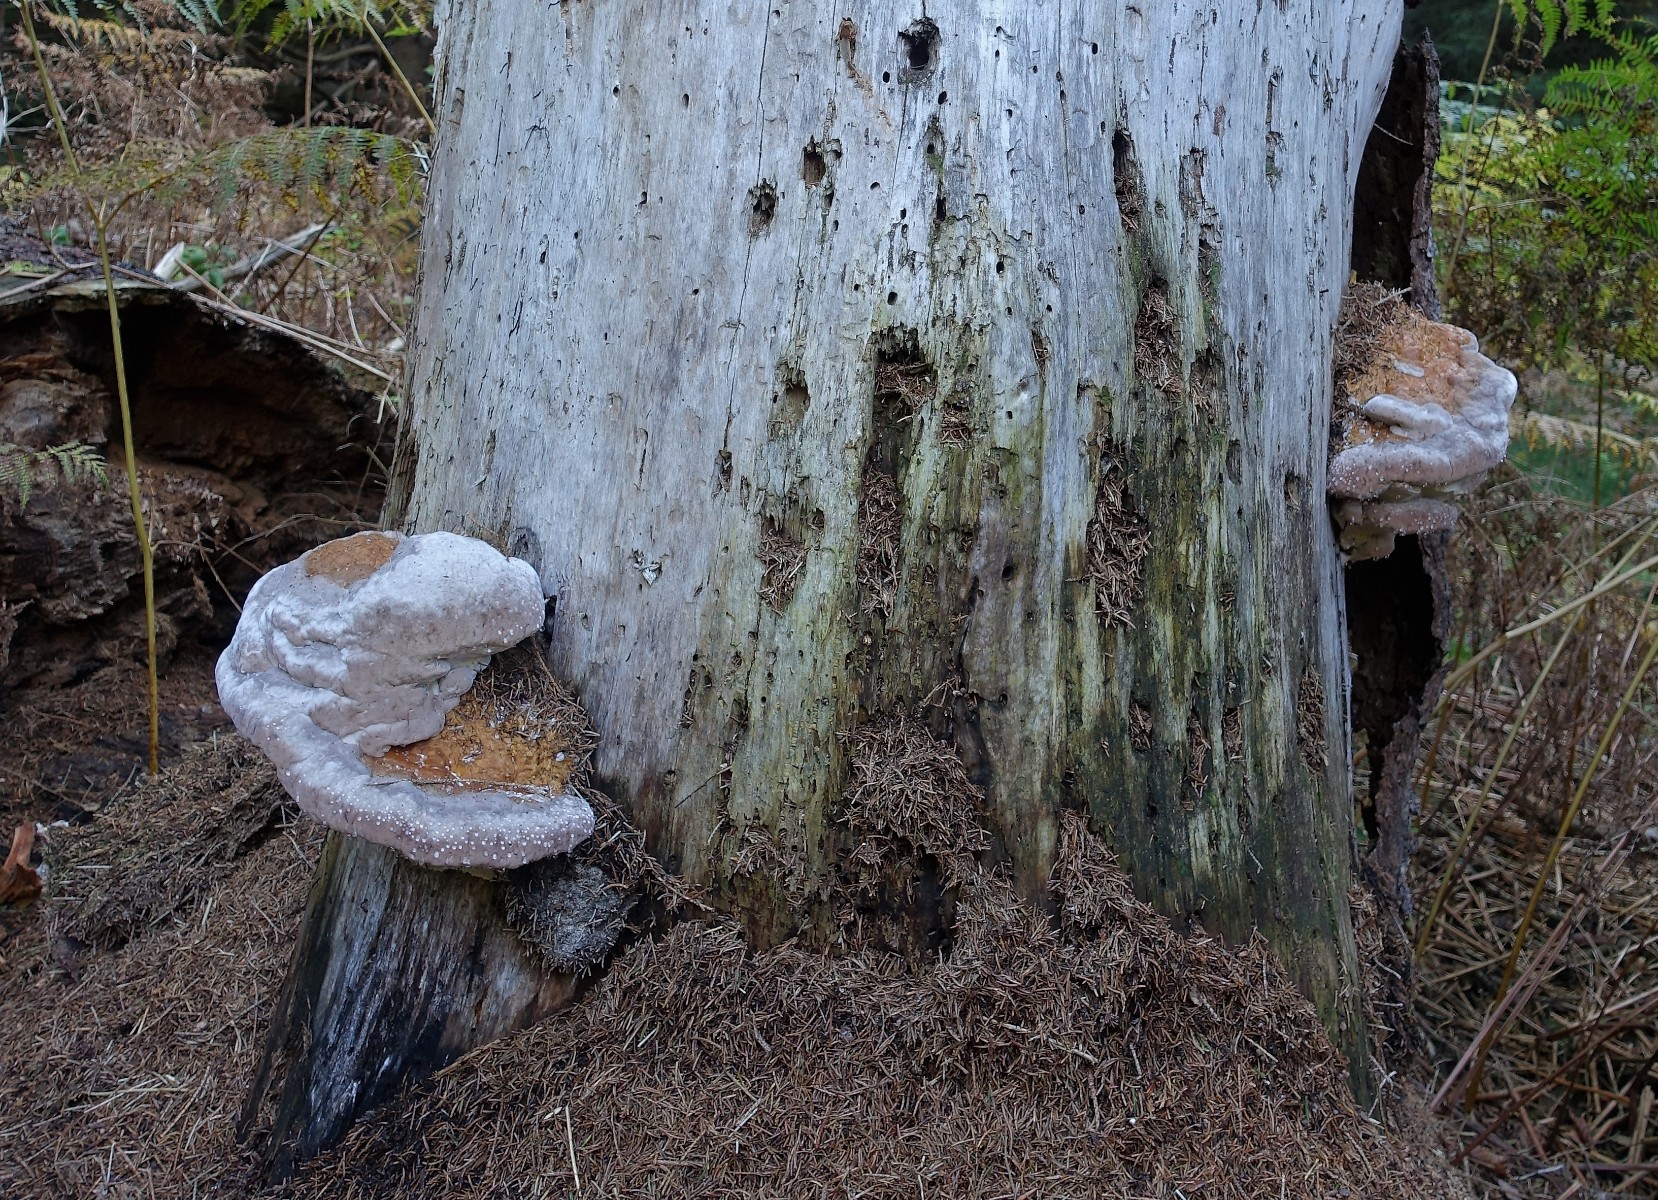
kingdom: Fungi
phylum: Basidiomycota
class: Agaricomycetes
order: Polyporales
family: Fomitopsidaceae
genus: Fomitopsis
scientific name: Fomitopsis pinicola
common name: randbæltet hovporesvamp
